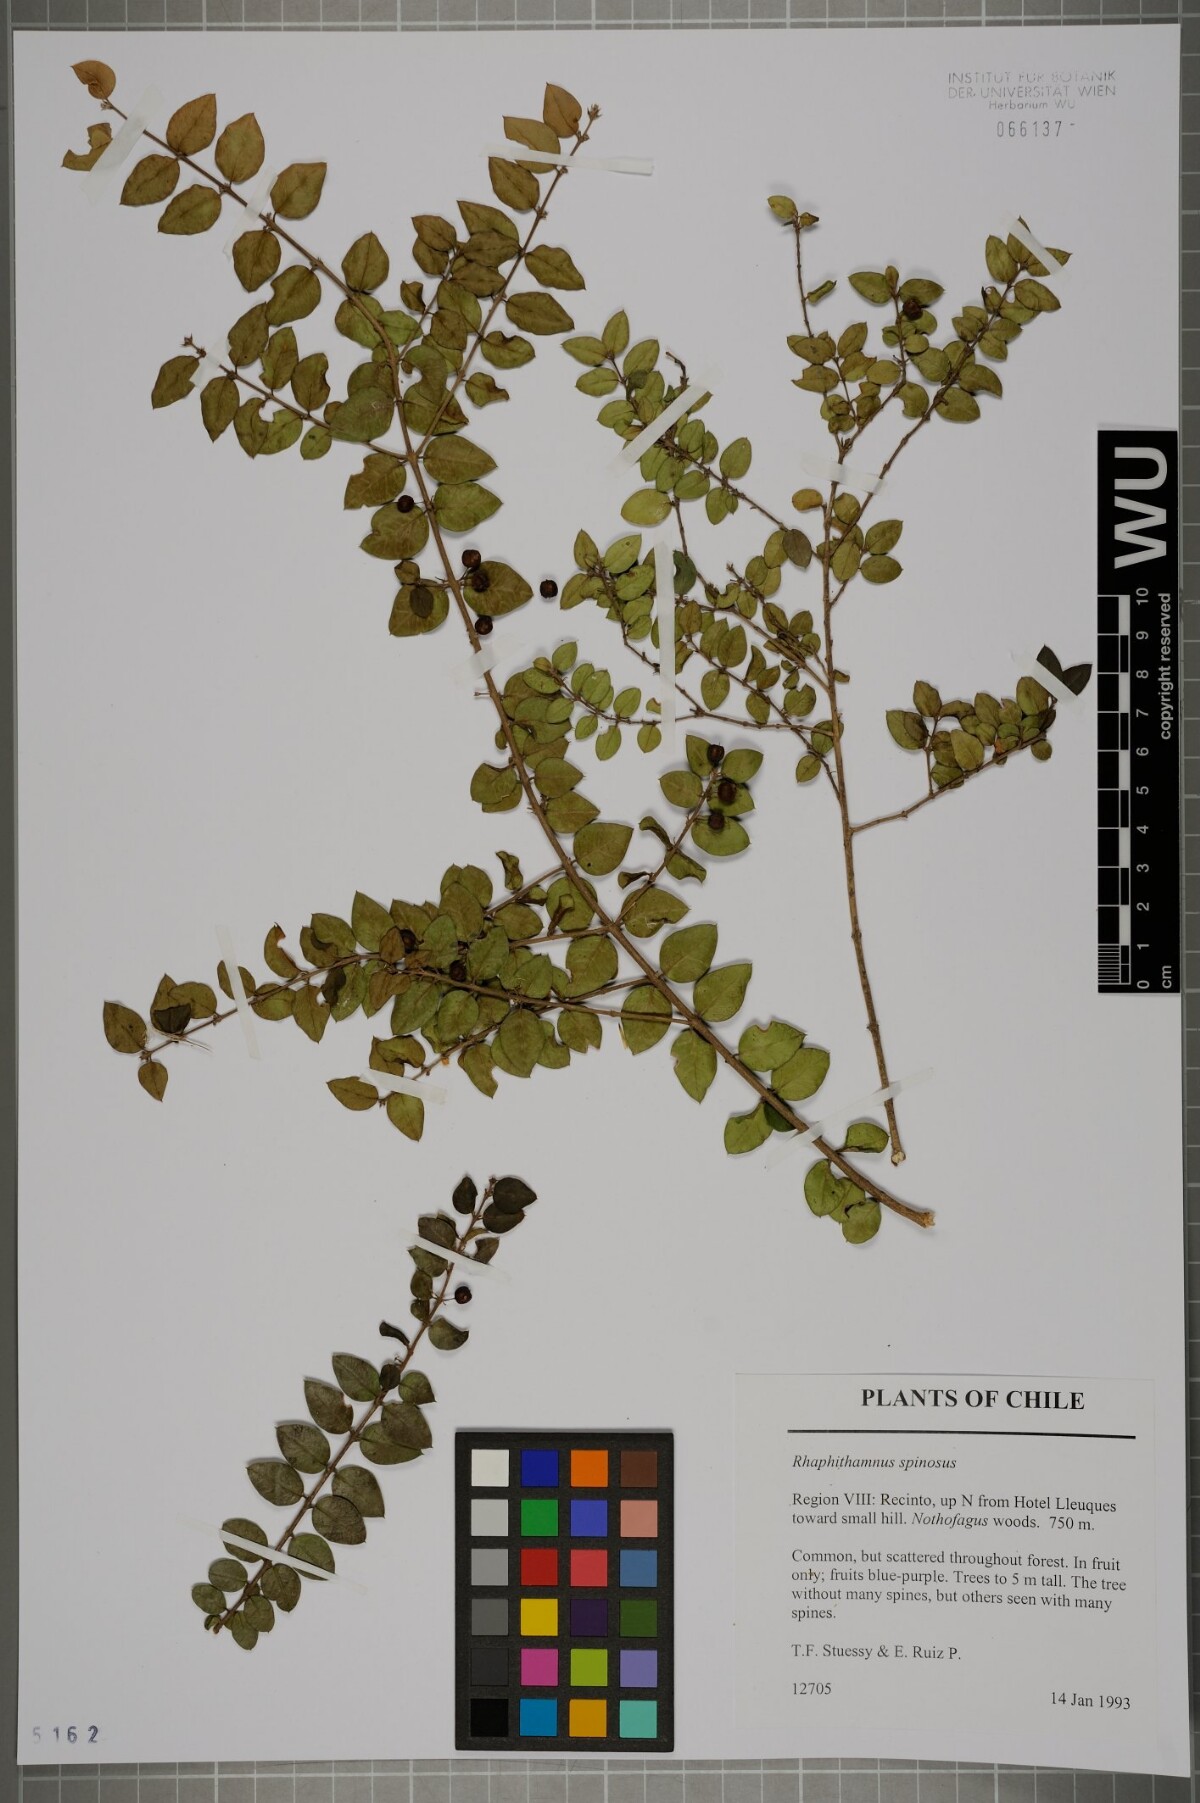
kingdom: Plantae
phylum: Tracheophyta
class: Magnoliopsida
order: Lamiales
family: Verbenaceae
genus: Rhaphithamnus
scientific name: Rhaphithamnus spinosus
